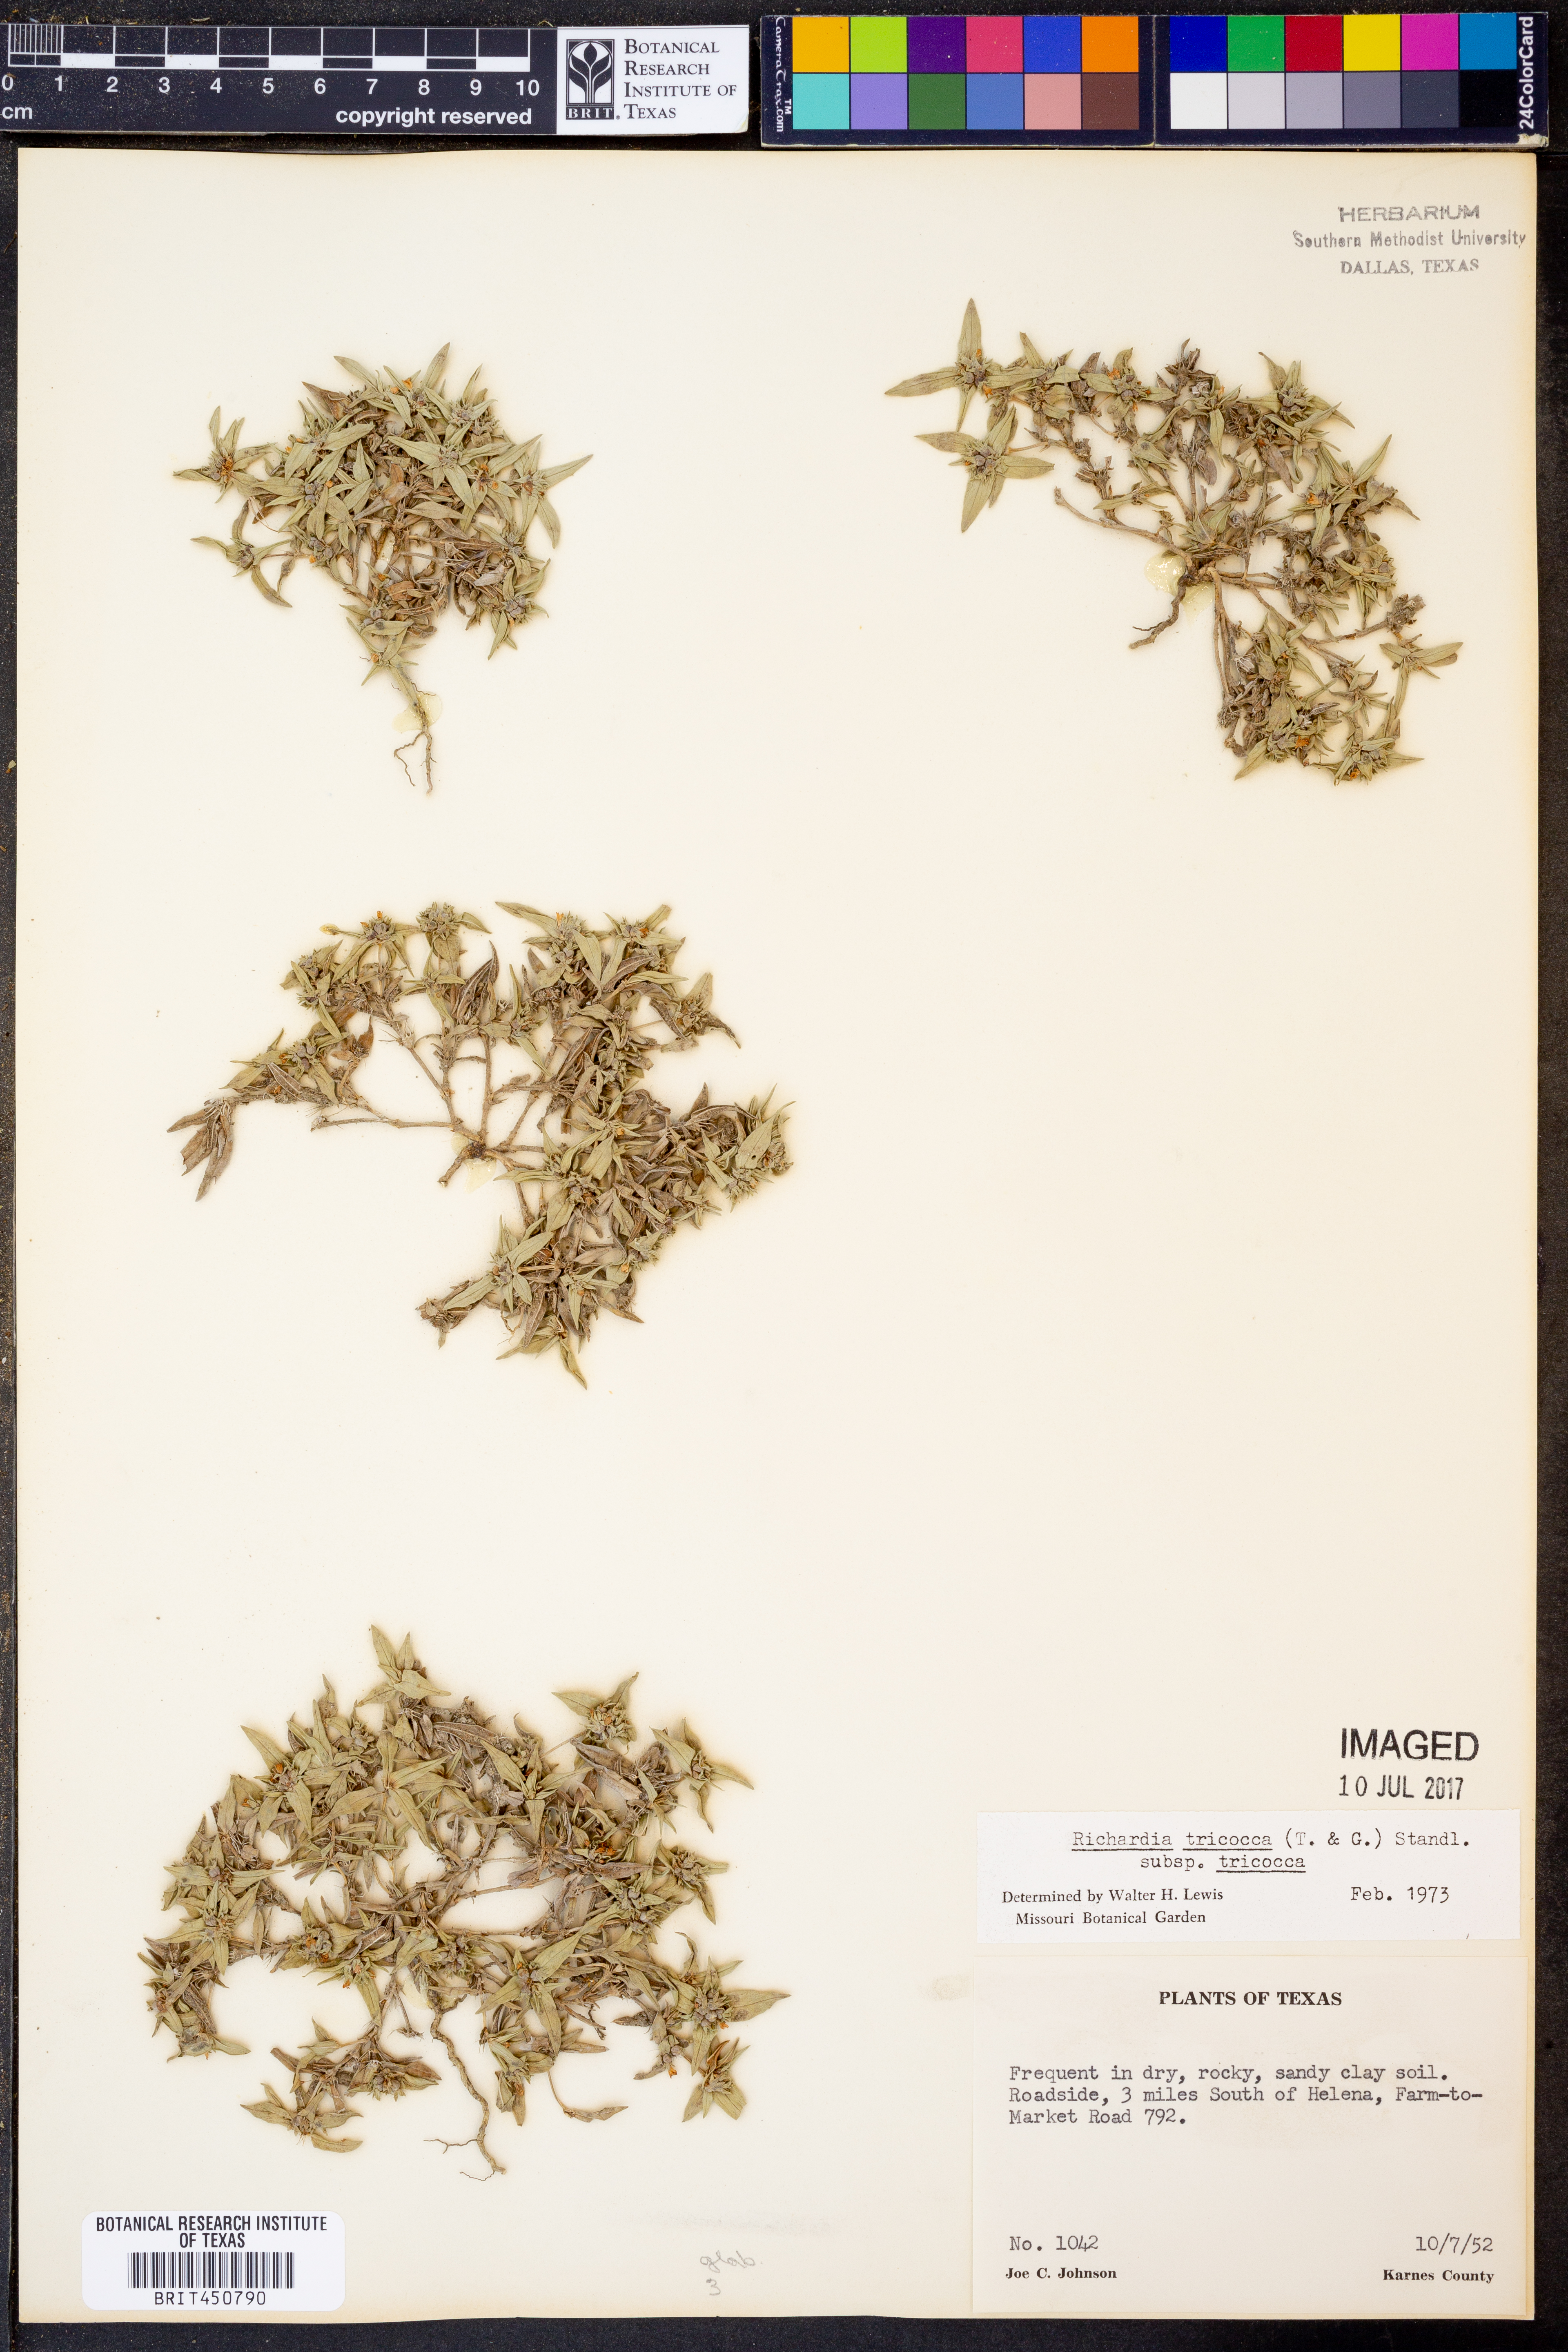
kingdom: Plantae
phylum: Tracheophyta
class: Magnoliopsida
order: Gentianales
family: Rubiaceae
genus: Richardia
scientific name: Richardia tricocca
